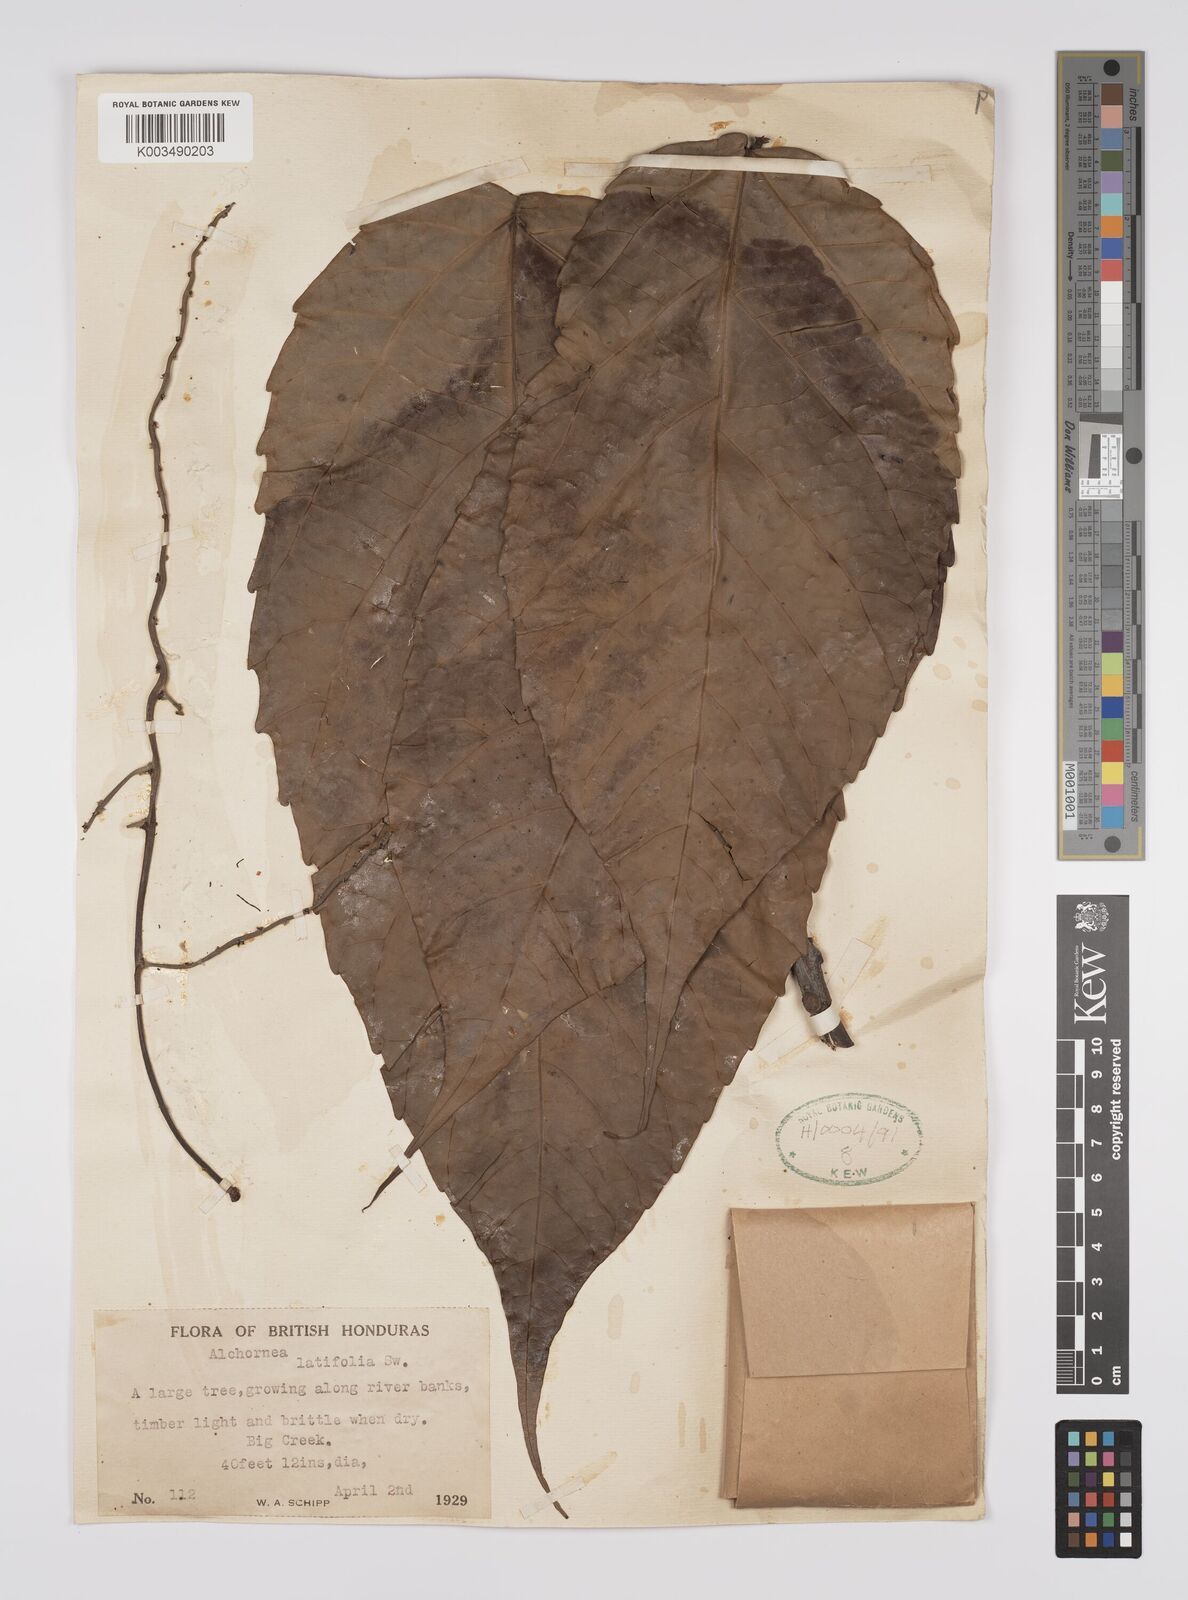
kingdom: Plantae
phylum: Tracheophyta
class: Magnoliopsida
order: Malpighiales
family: Euphorbiaceae
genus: Alchornea
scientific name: Alchornea latifolia
